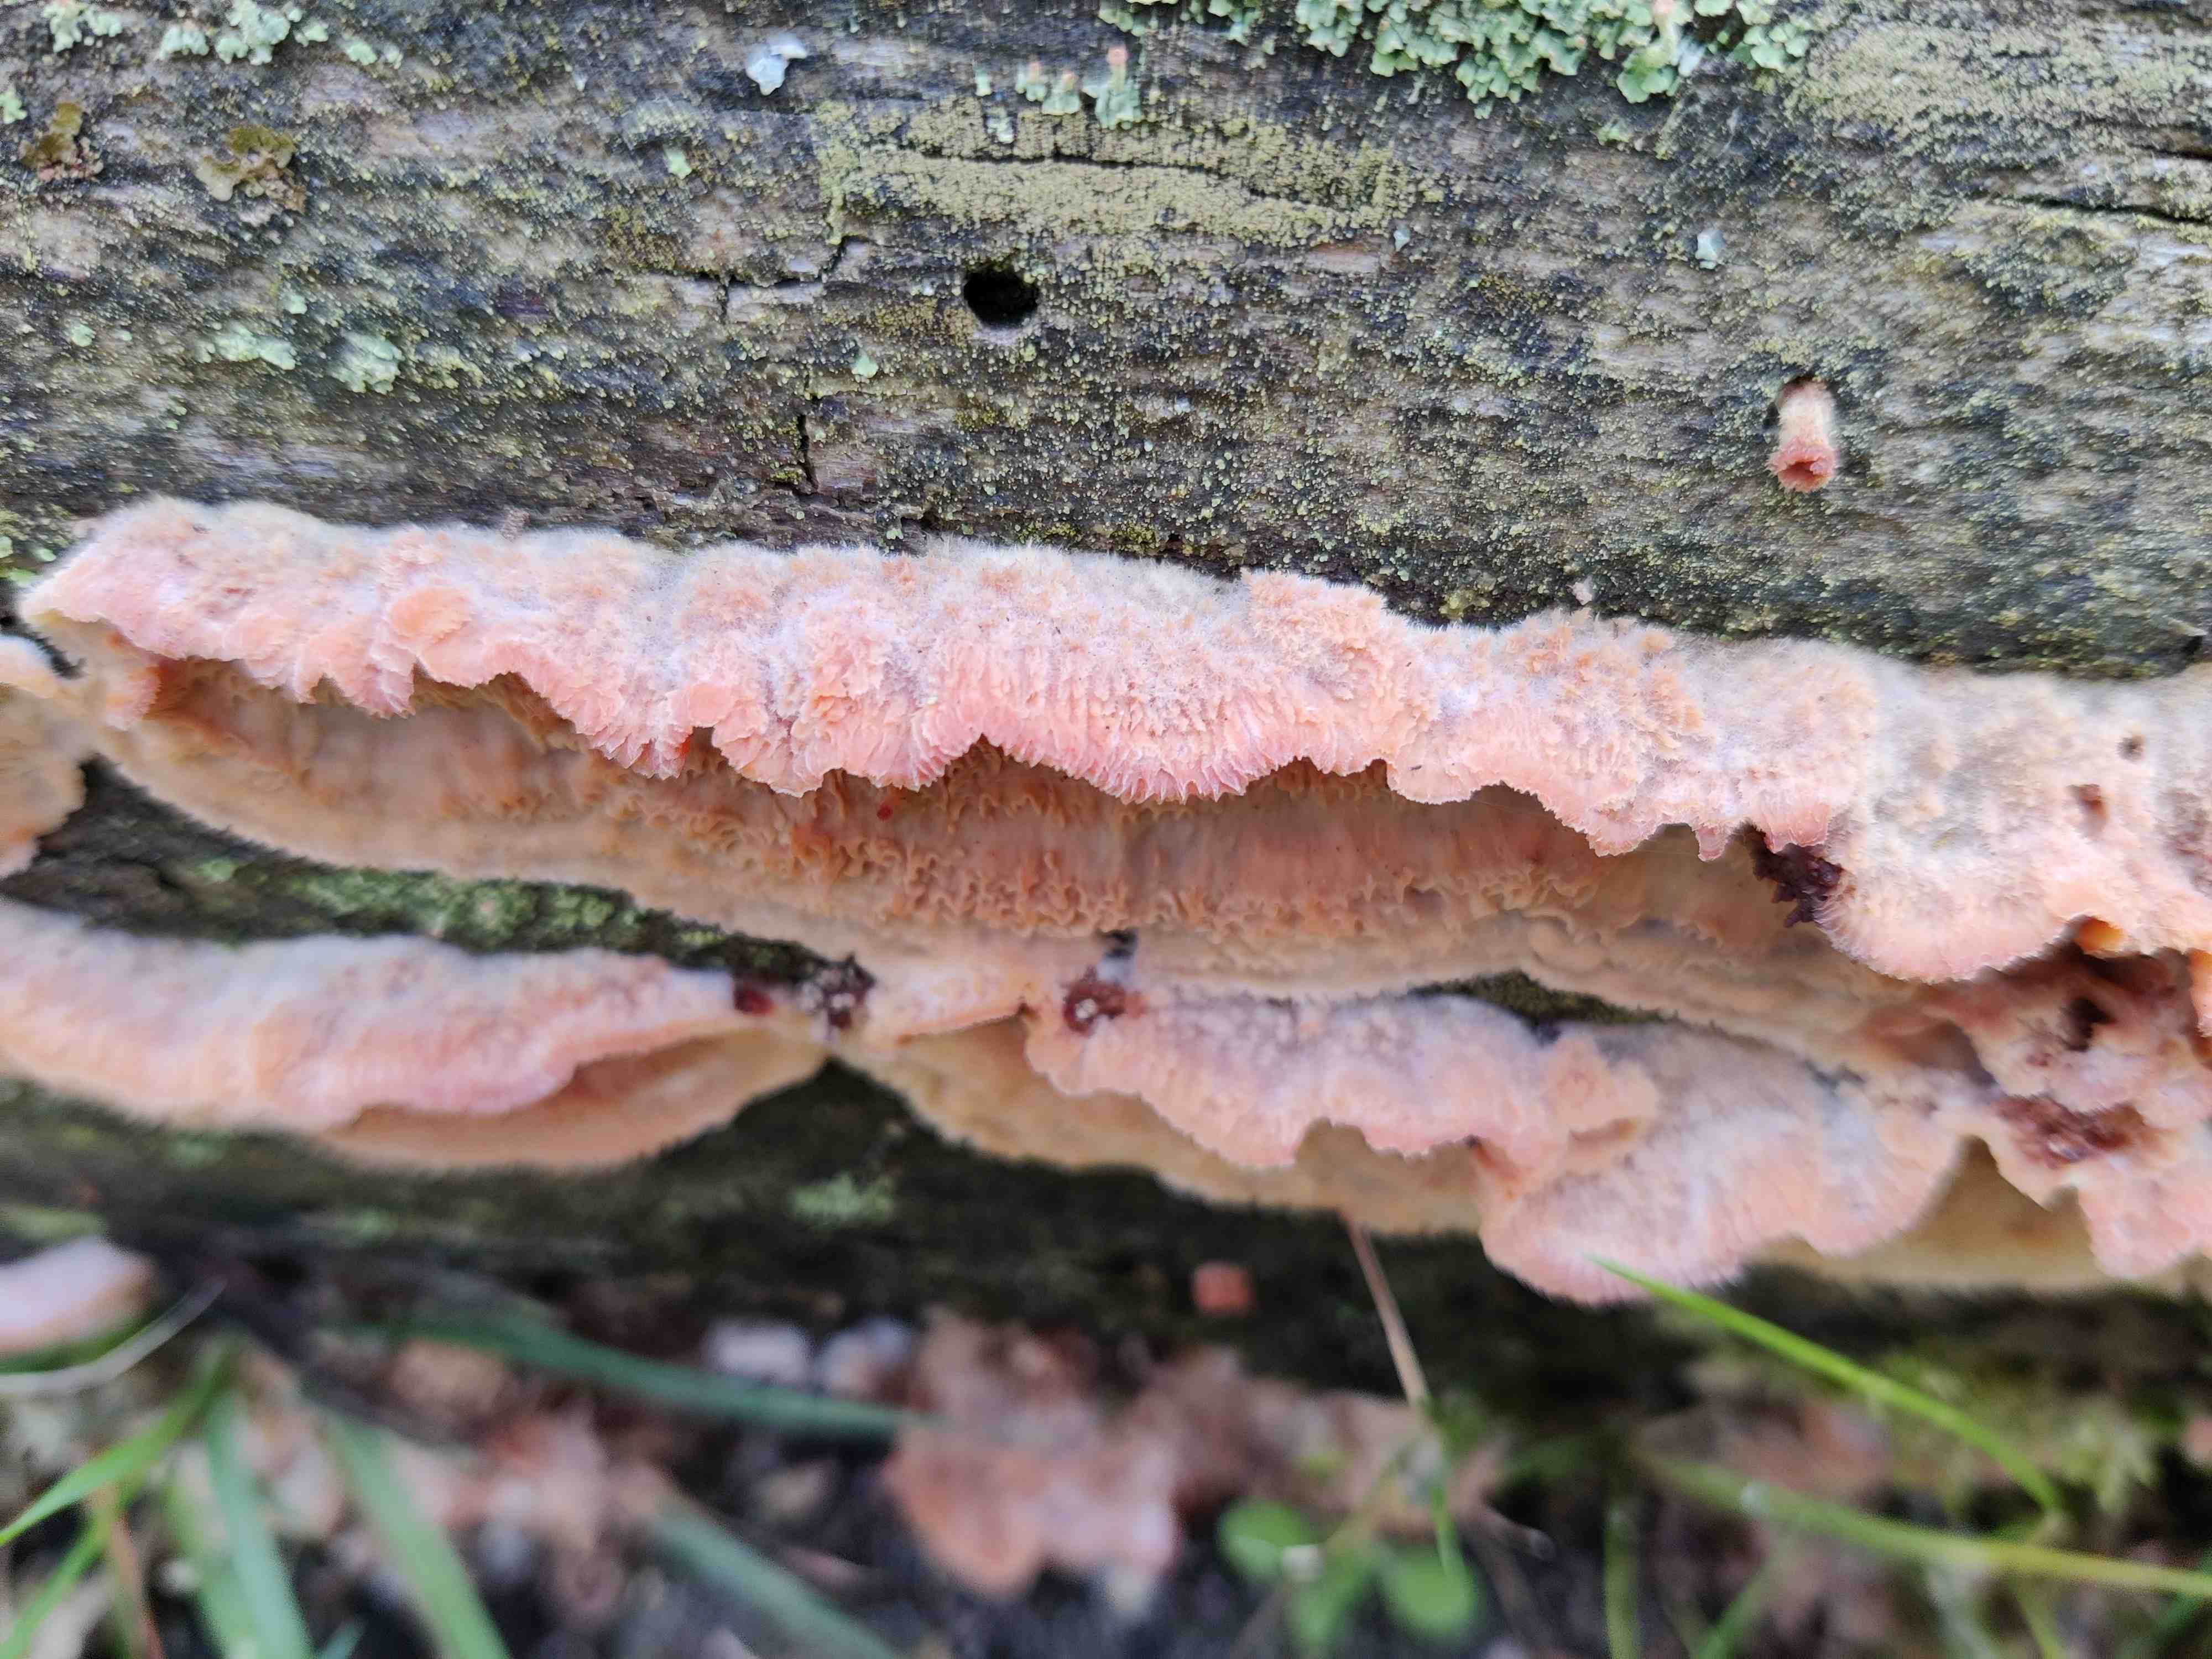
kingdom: Fungi
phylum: Basidiomycota
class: Agaricomycetes
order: Polyporales
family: Meruliaceae
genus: Phlebia
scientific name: Phlebia tremellosa
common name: bævrende åresvamp
